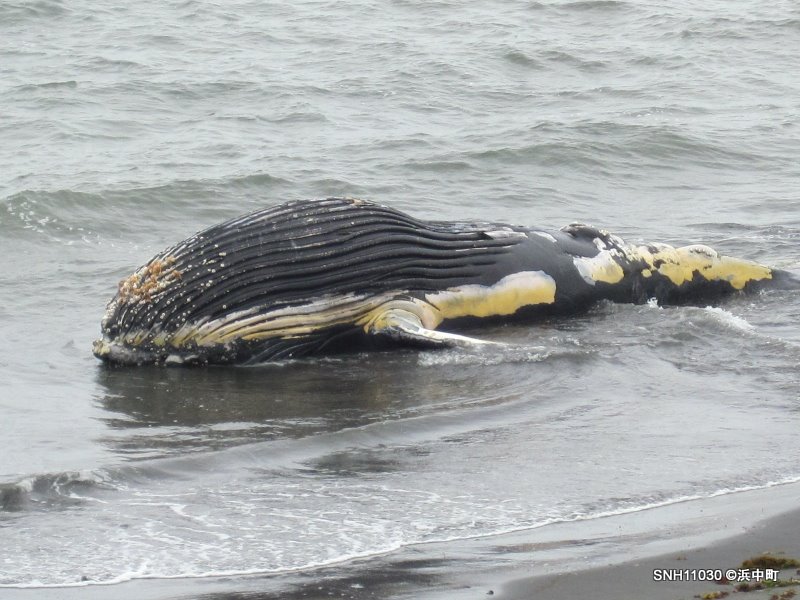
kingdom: Animalia
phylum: Chordata
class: Mammalia
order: Cetacea
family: Balaenopteridae
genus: Megaptera
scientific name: Megaptera novaeangliae
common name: Humpback whale
